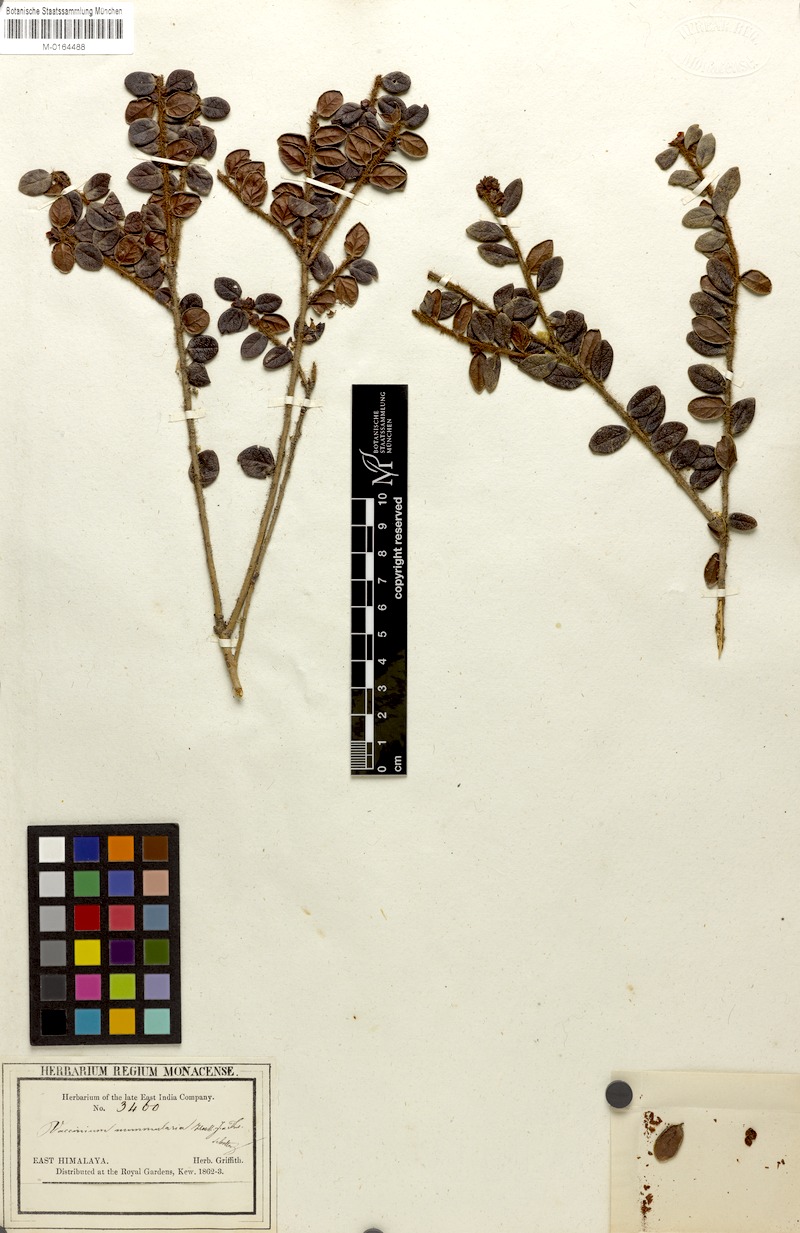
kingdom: Plantae
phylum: Tracheophyta
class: Magnoliopsida
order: Ericales
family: Ericaceae
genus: Vaccinium
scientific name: Vaccinium nummularia
